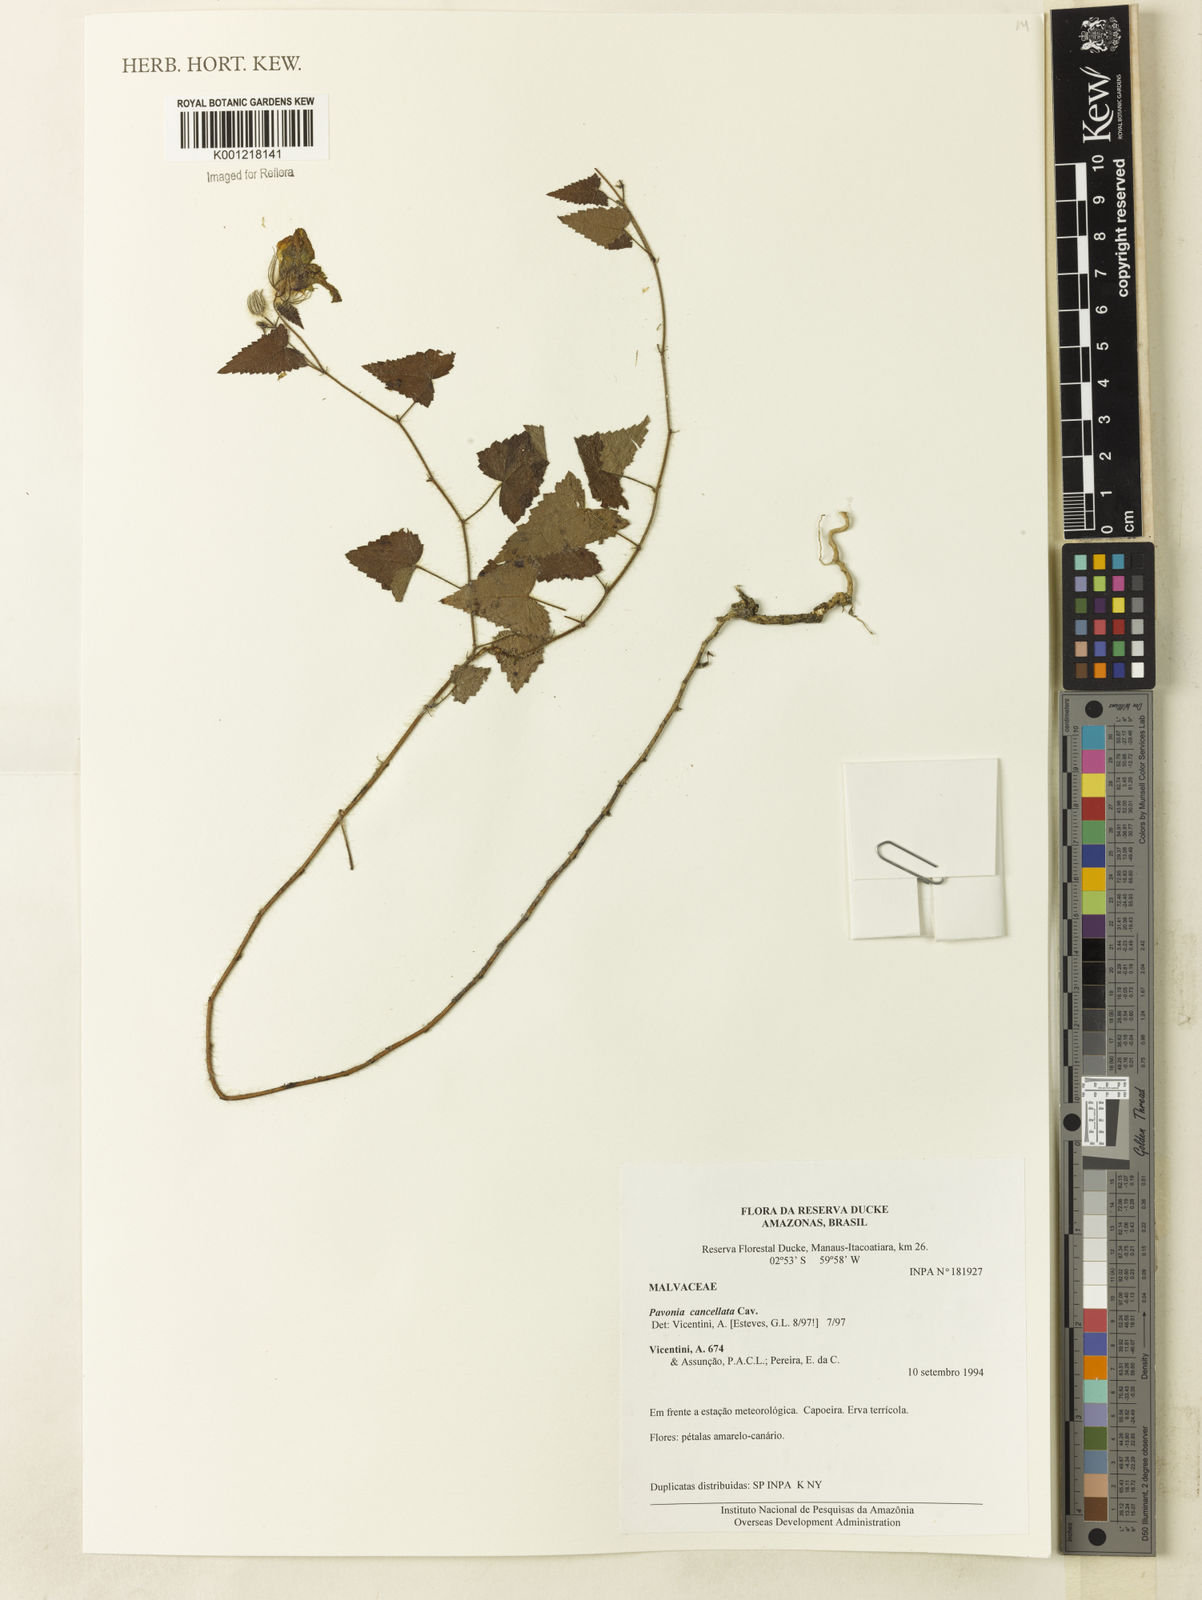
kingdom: Plantae
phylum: Tracheophyta
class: Magnoliopsida
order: Malvales
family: Malvaceae
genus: Pavonia
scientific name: Pavonia cancellata
